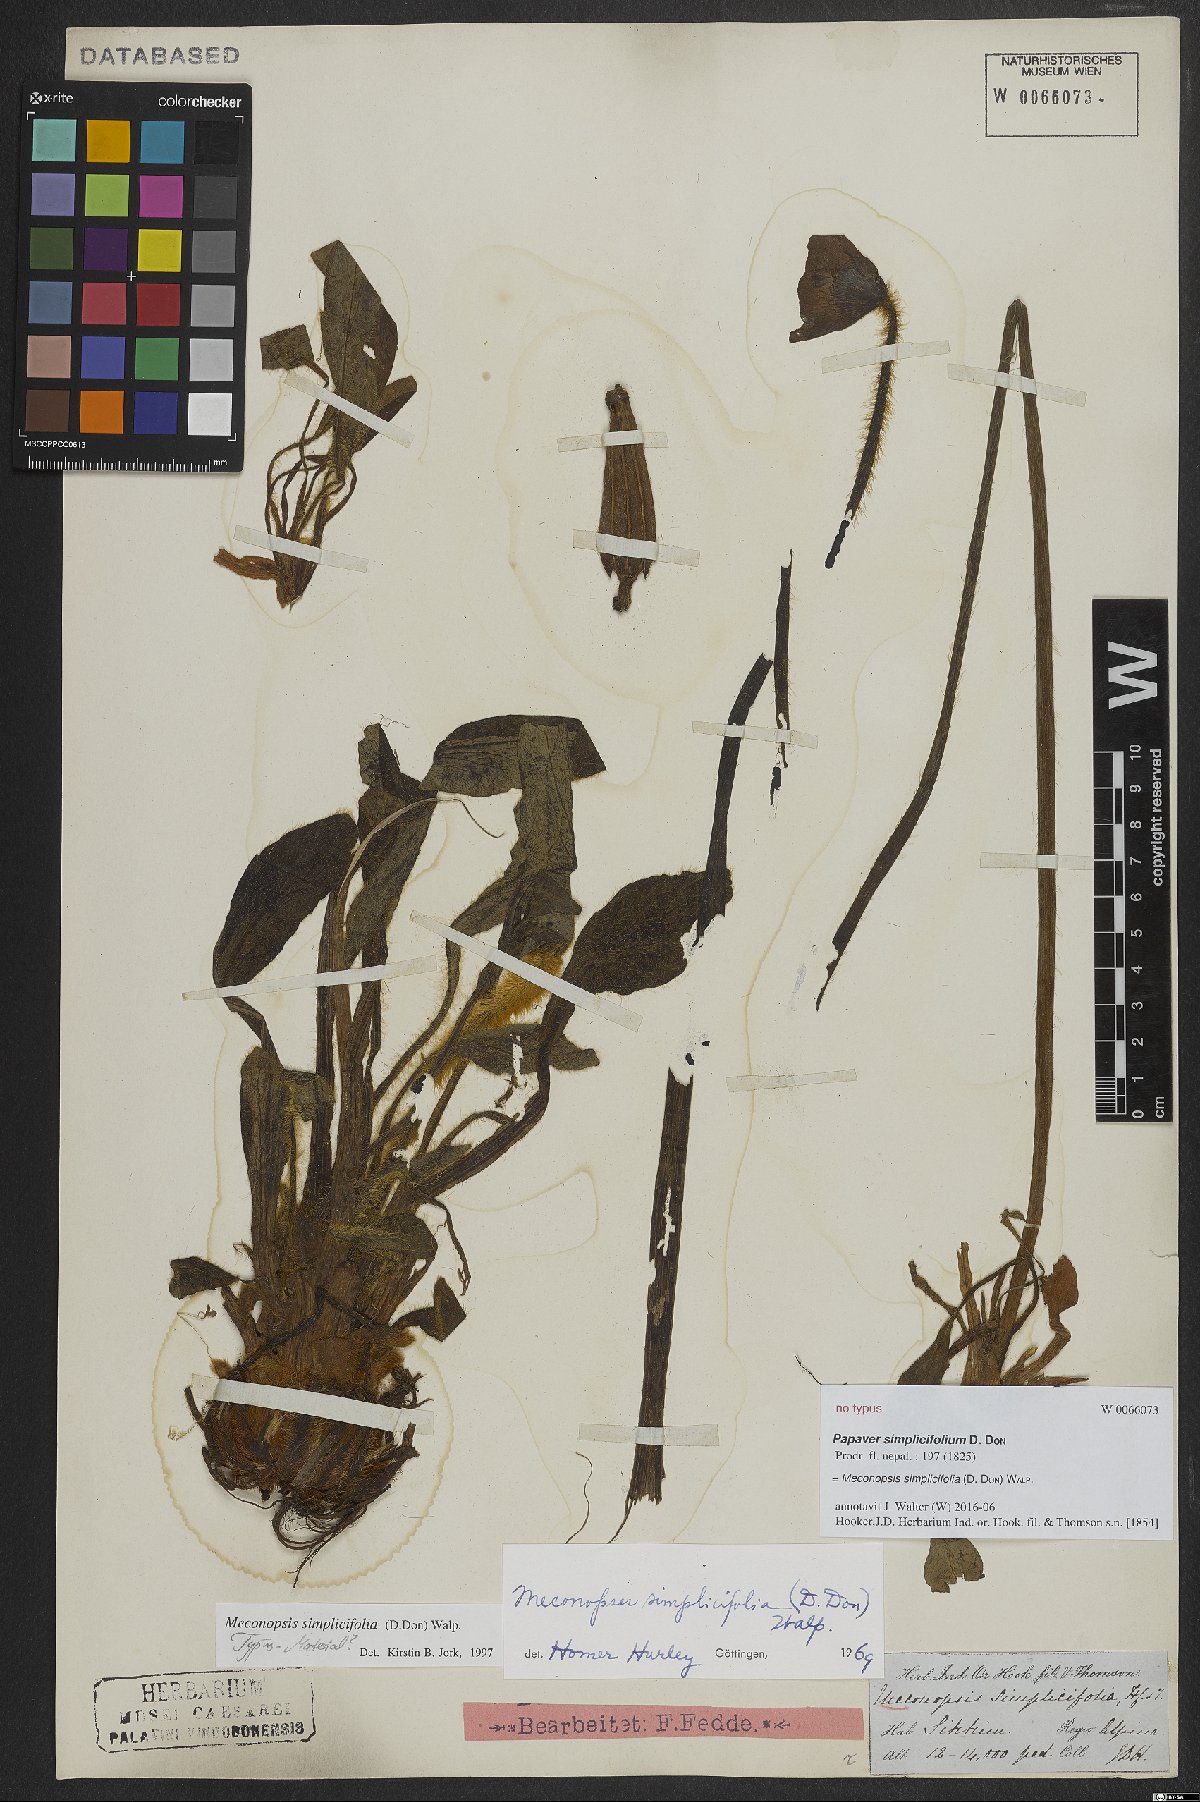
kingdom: Plantae
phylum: Tracheophyta
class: Magnoliopsida
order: Ranunculales
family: Papaveraceae
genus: Meconopsis
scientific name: Meconopsis simplicifolia
